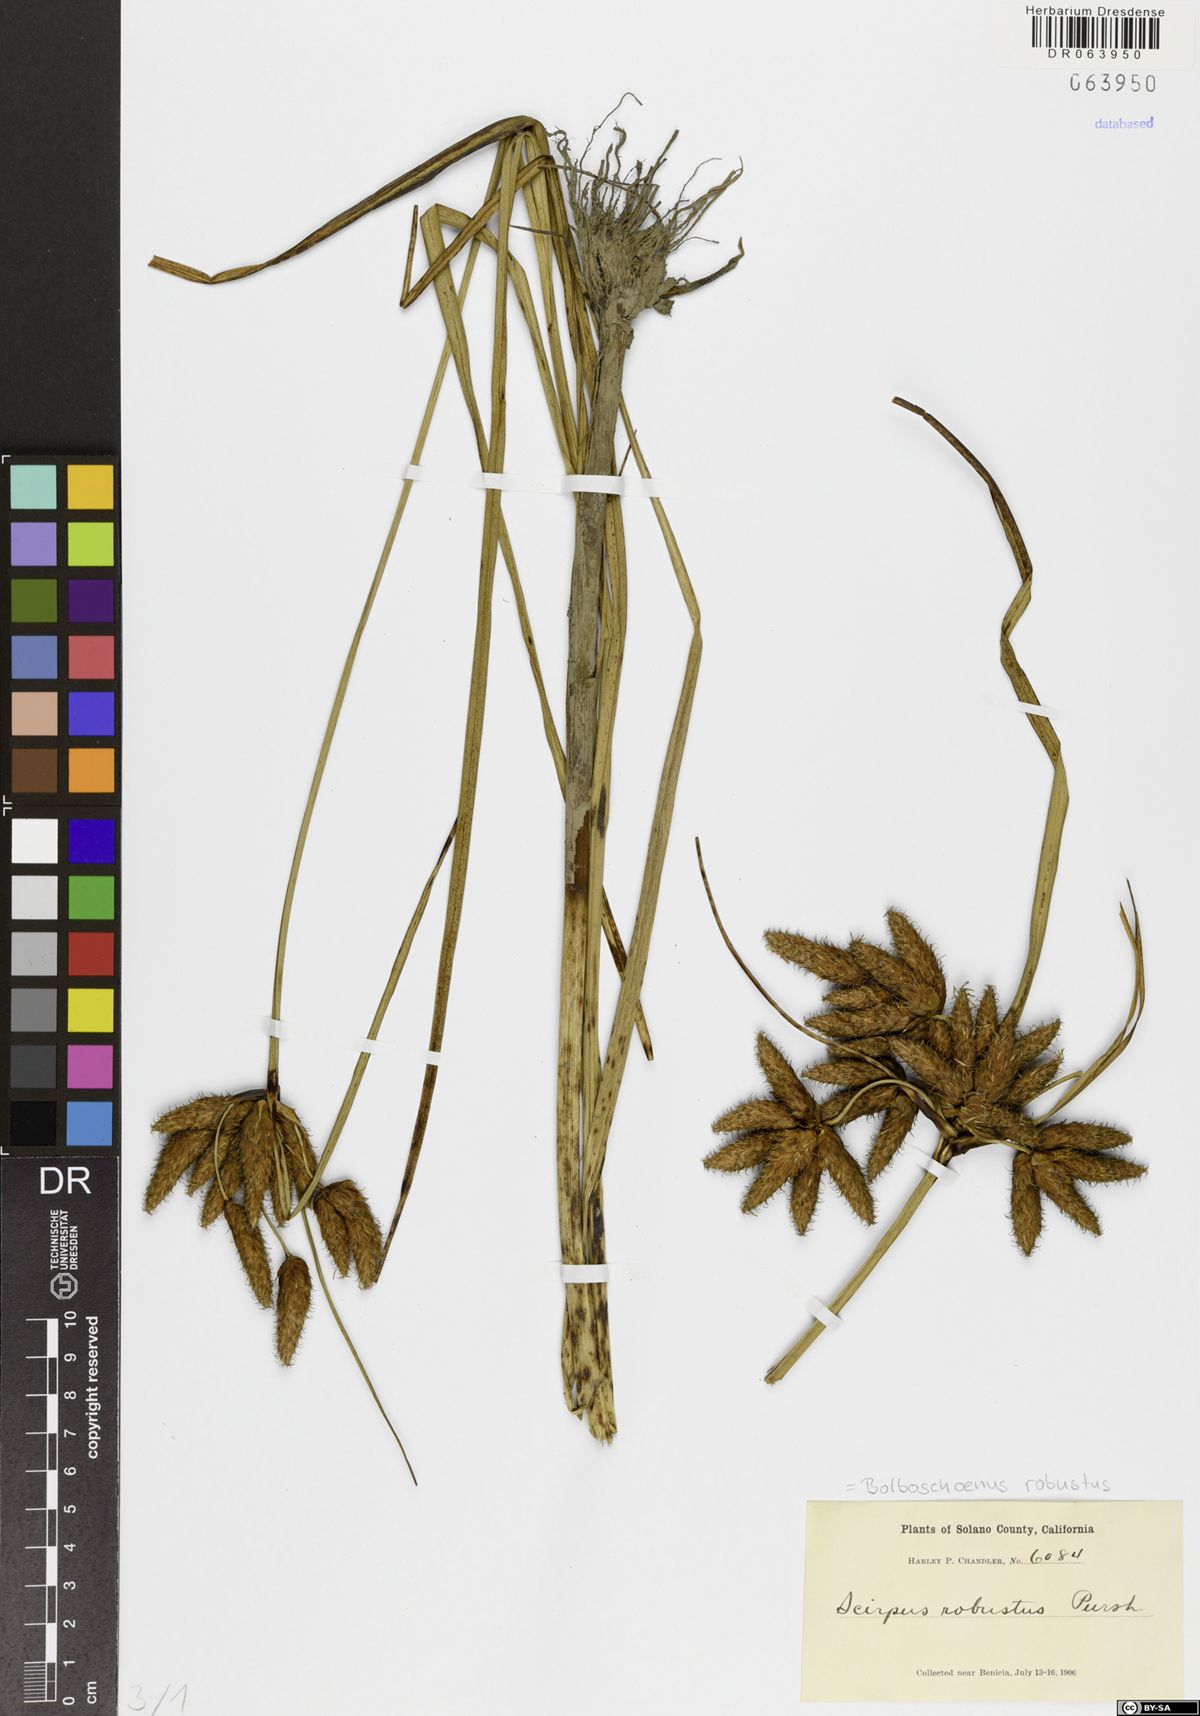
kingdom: Plantae
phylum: Tracheophyta
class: Liliopsida
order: Poales
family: Cyperaceae
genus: Bolboschoenus
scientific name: Bolboschoenus robustus
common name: Seacoast bulrush
